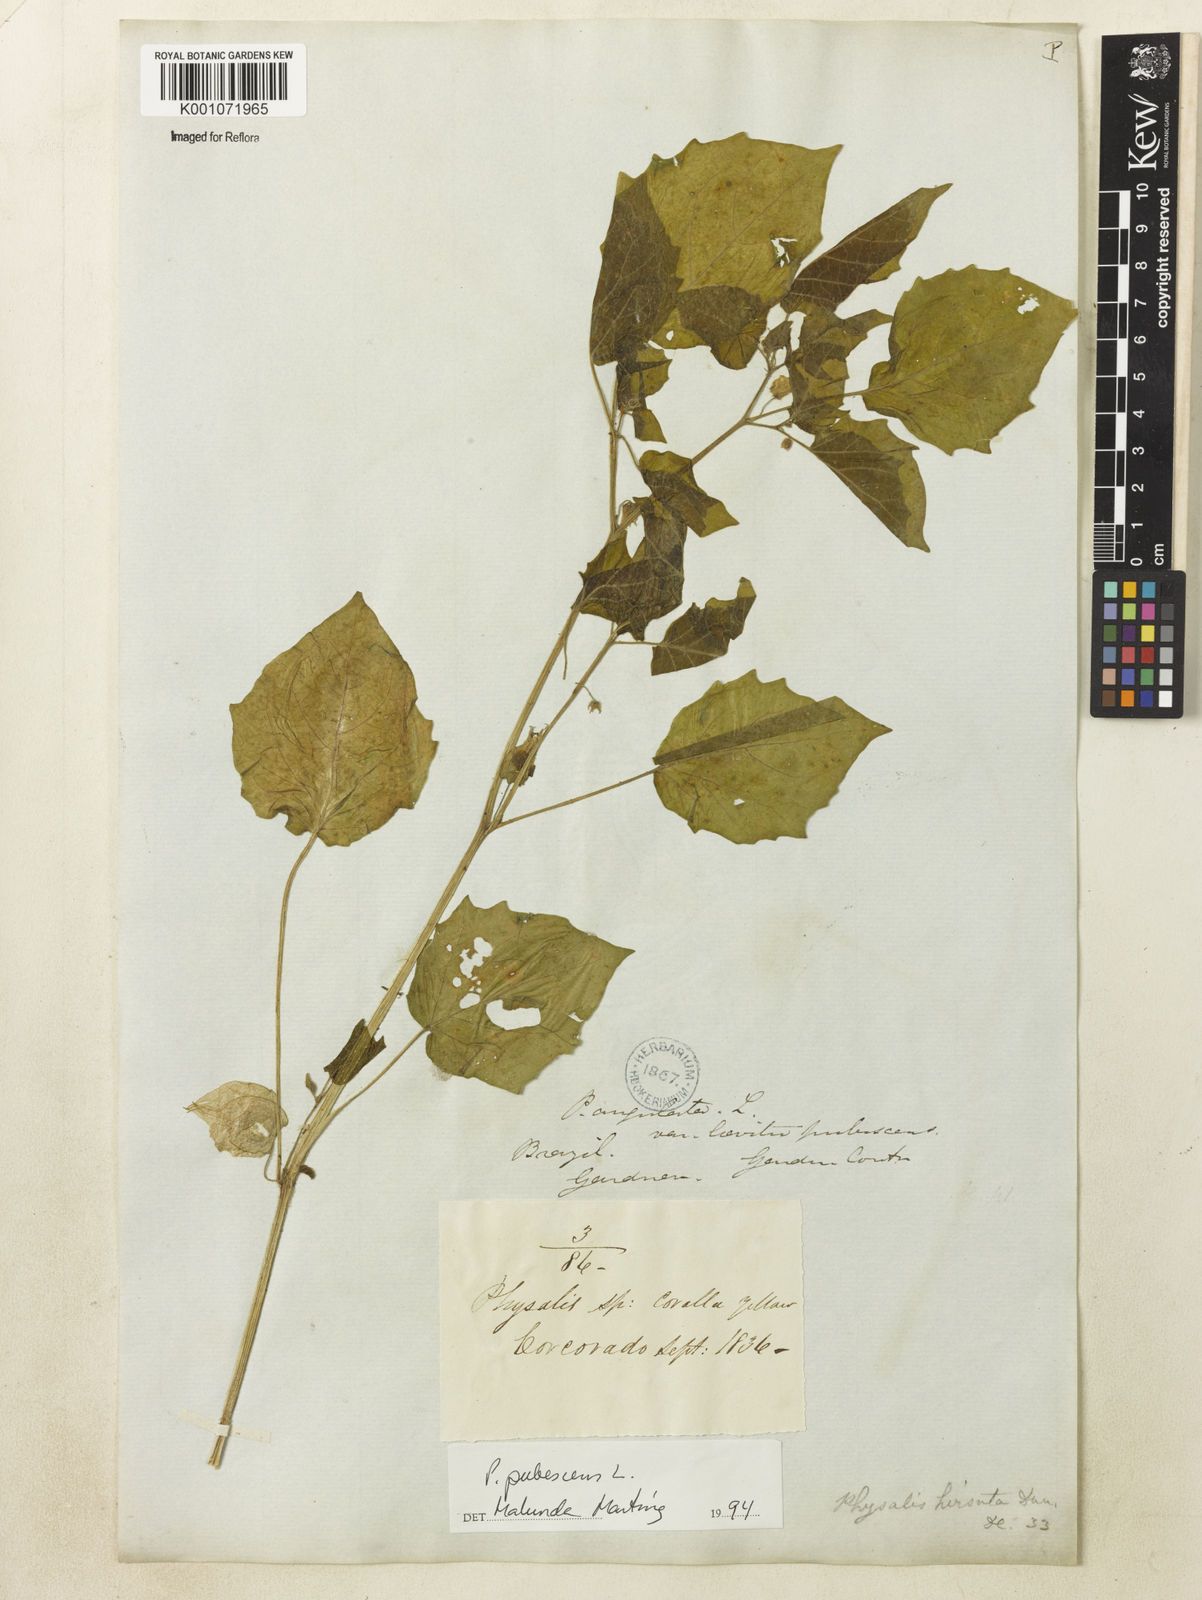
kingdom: Plantae
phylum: Tracheophyta
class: Magnoliopsida
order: Solanales
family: Solanaceae
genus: Physalis
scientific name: Physalis pubescens
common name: Downy ground-cherry
